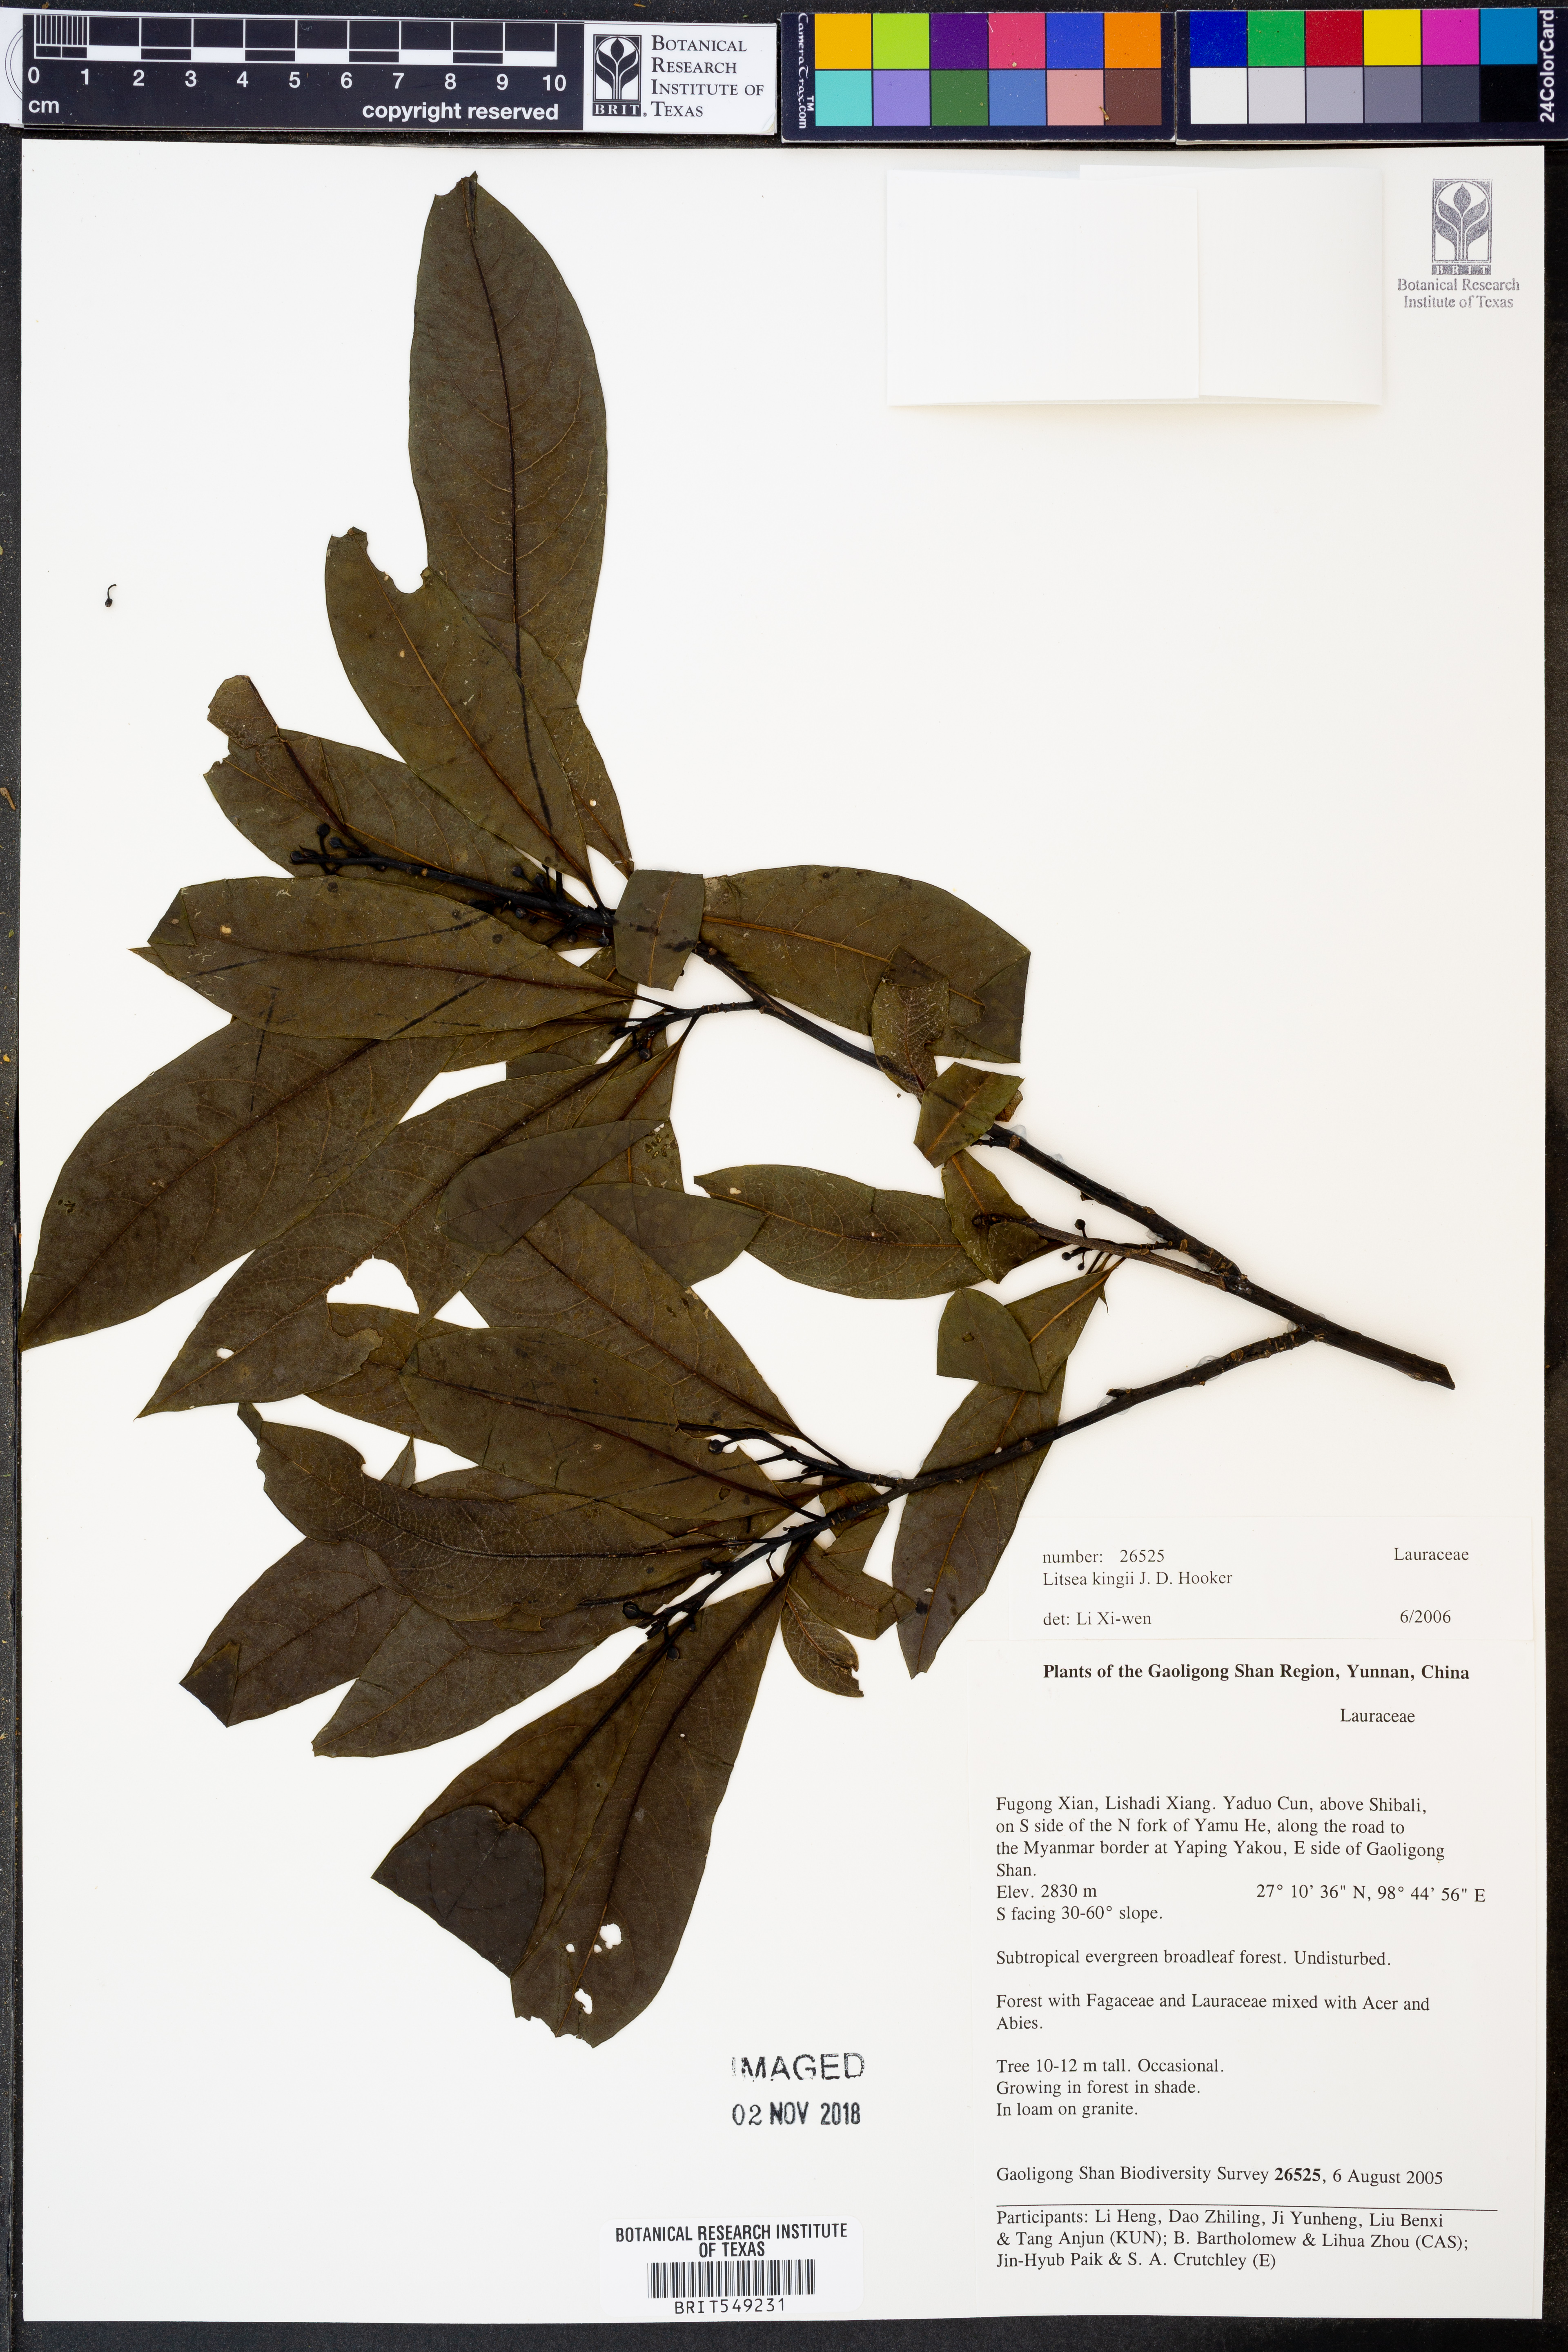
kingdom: Plantae
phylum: Tracheophyta
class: Magnoliopsida
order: Laurales
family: Lauraceae
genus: Litsea
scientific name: Litsea kingii
